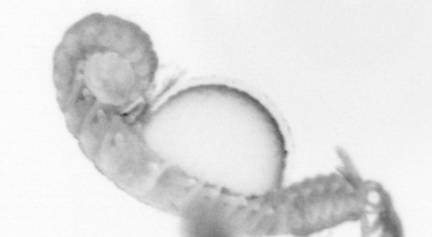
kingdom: Animalia
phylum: Annelida
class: Polychaeta
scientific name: Polychaeta
